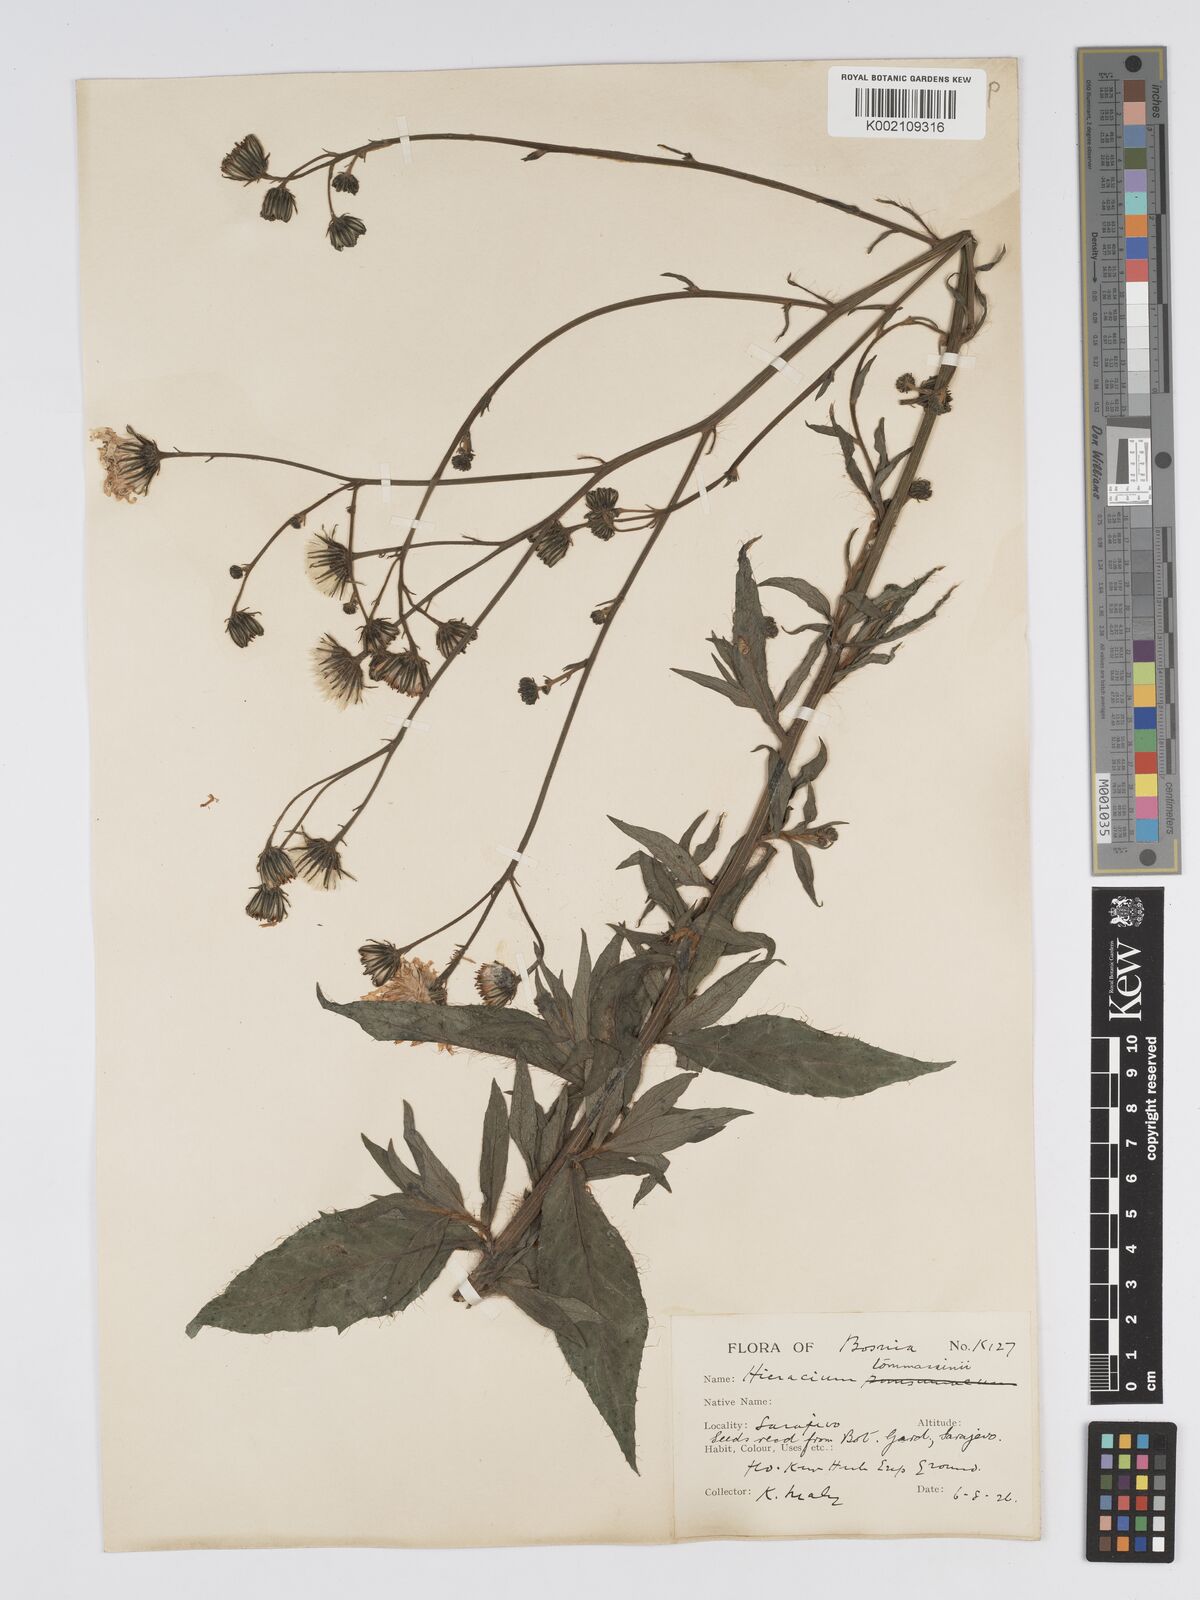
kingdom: Plantae
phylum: Tracheophyta
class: Magnoliopsida
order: Asterales
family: Asteraceae
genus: Hieracium
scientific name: Hieracium tommasinianum
